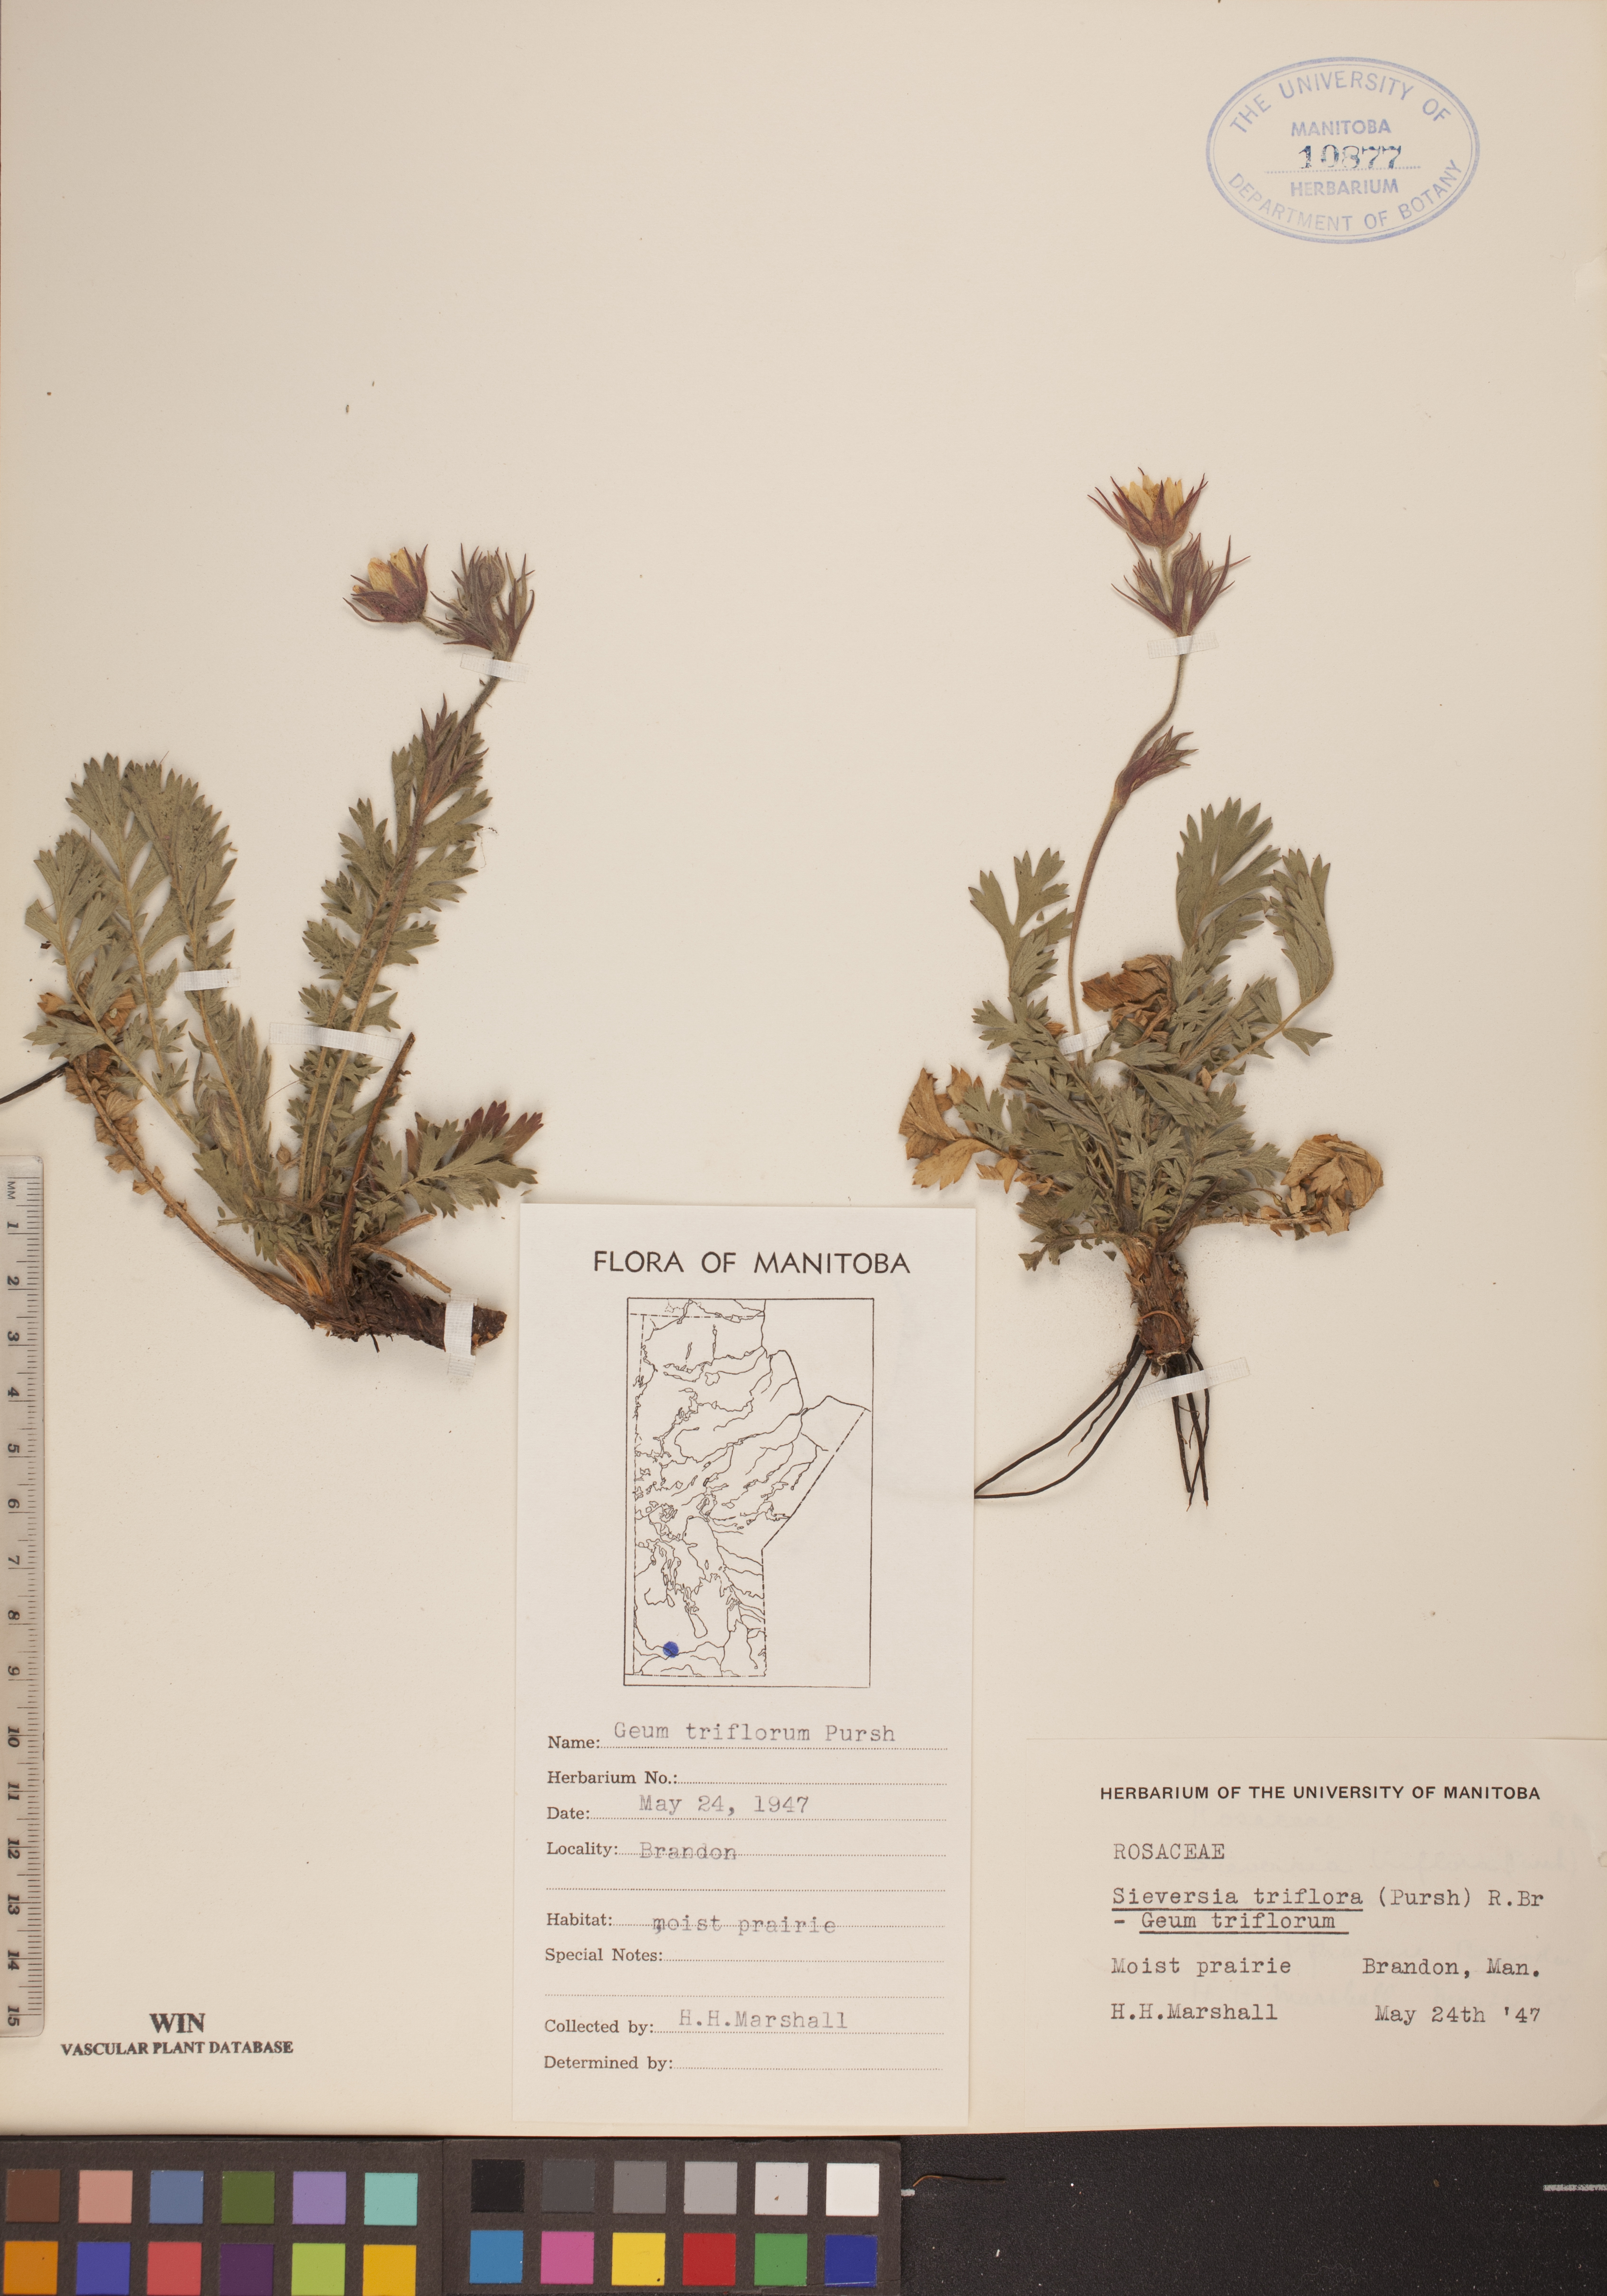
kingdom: Plantae
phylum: Tracheophyta
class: Magnoliopsida
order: Rosales
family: Rosaceae
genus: Geum
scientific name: Geum triflorum
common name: Old man's whiskers
